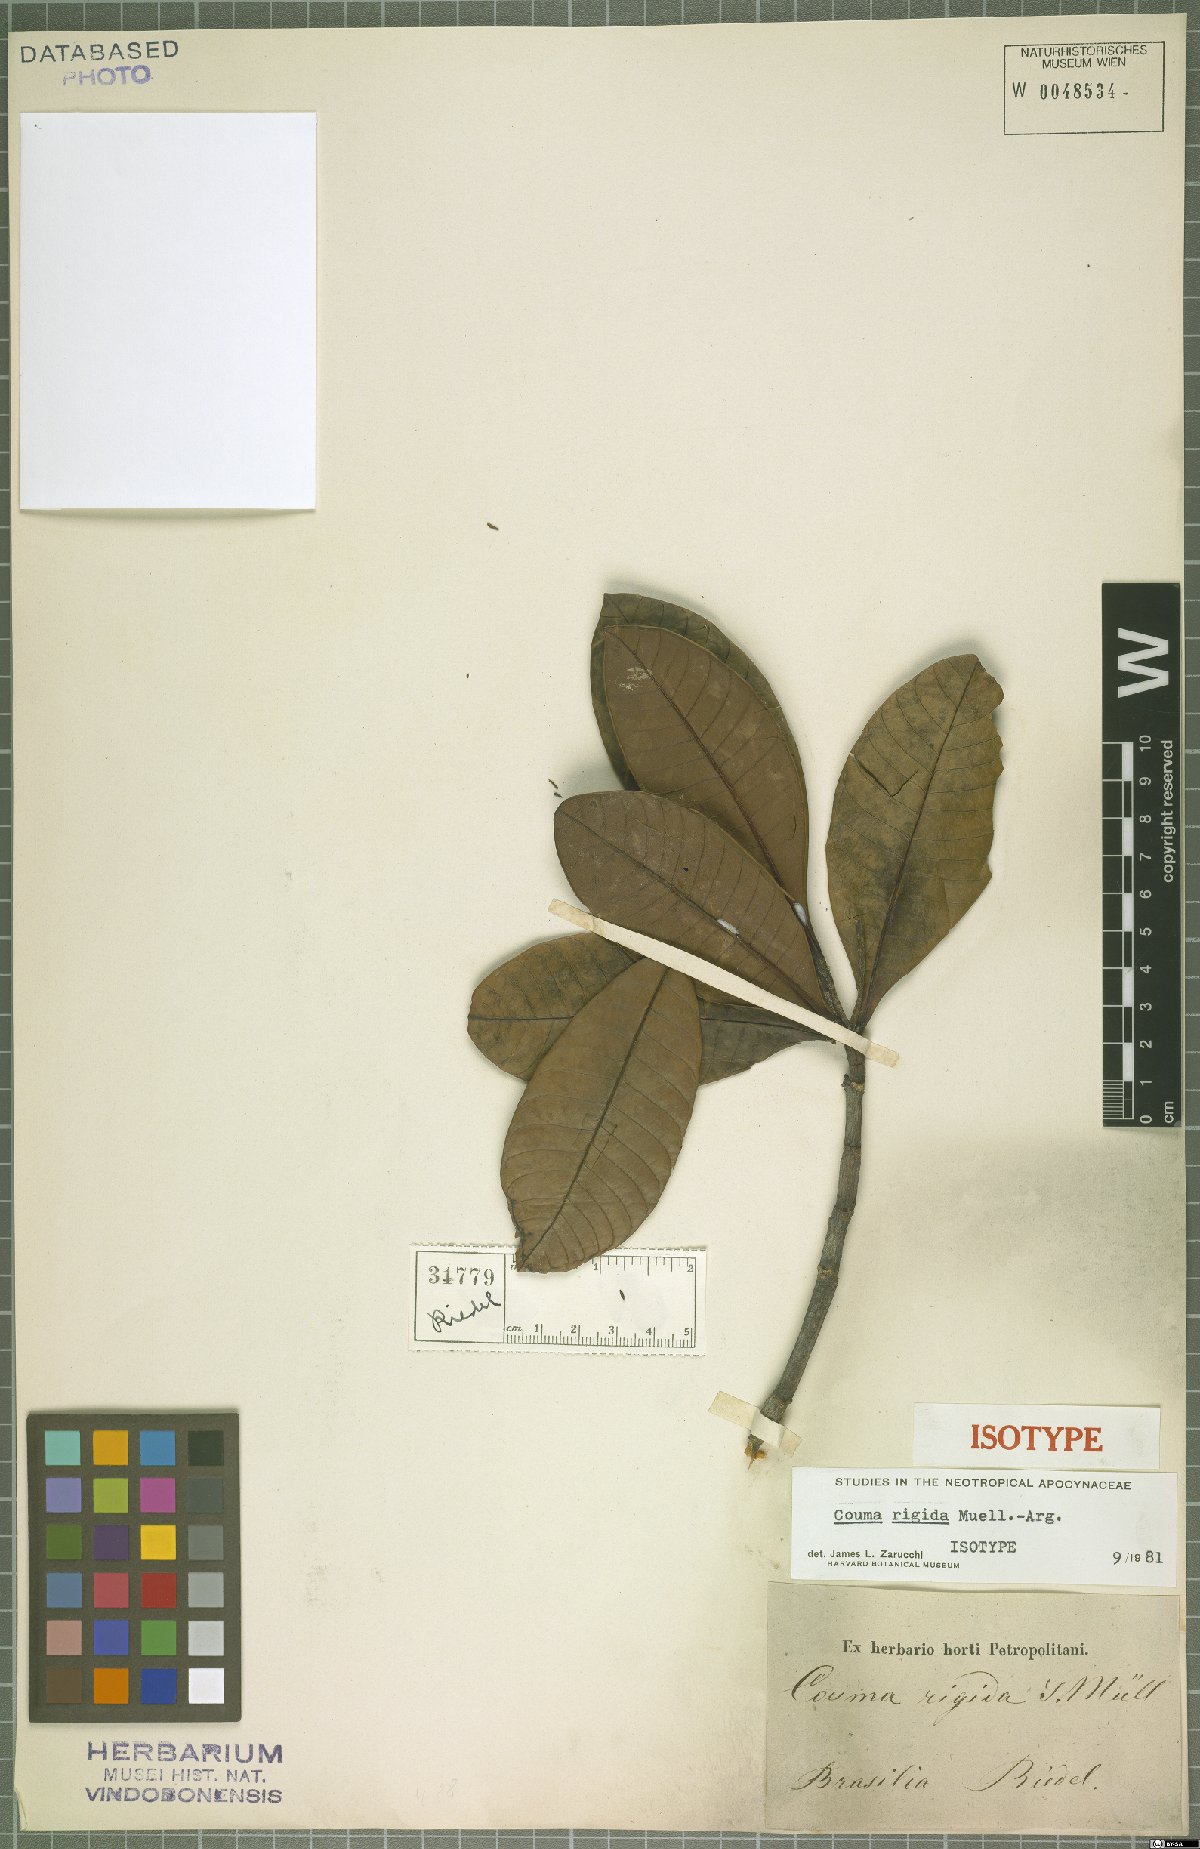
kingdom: Plantae
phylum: Tracheophyta
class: Magnoliopsida
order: Gentianales
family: Apocynaceae
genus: Couma
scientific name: Couma rigida
